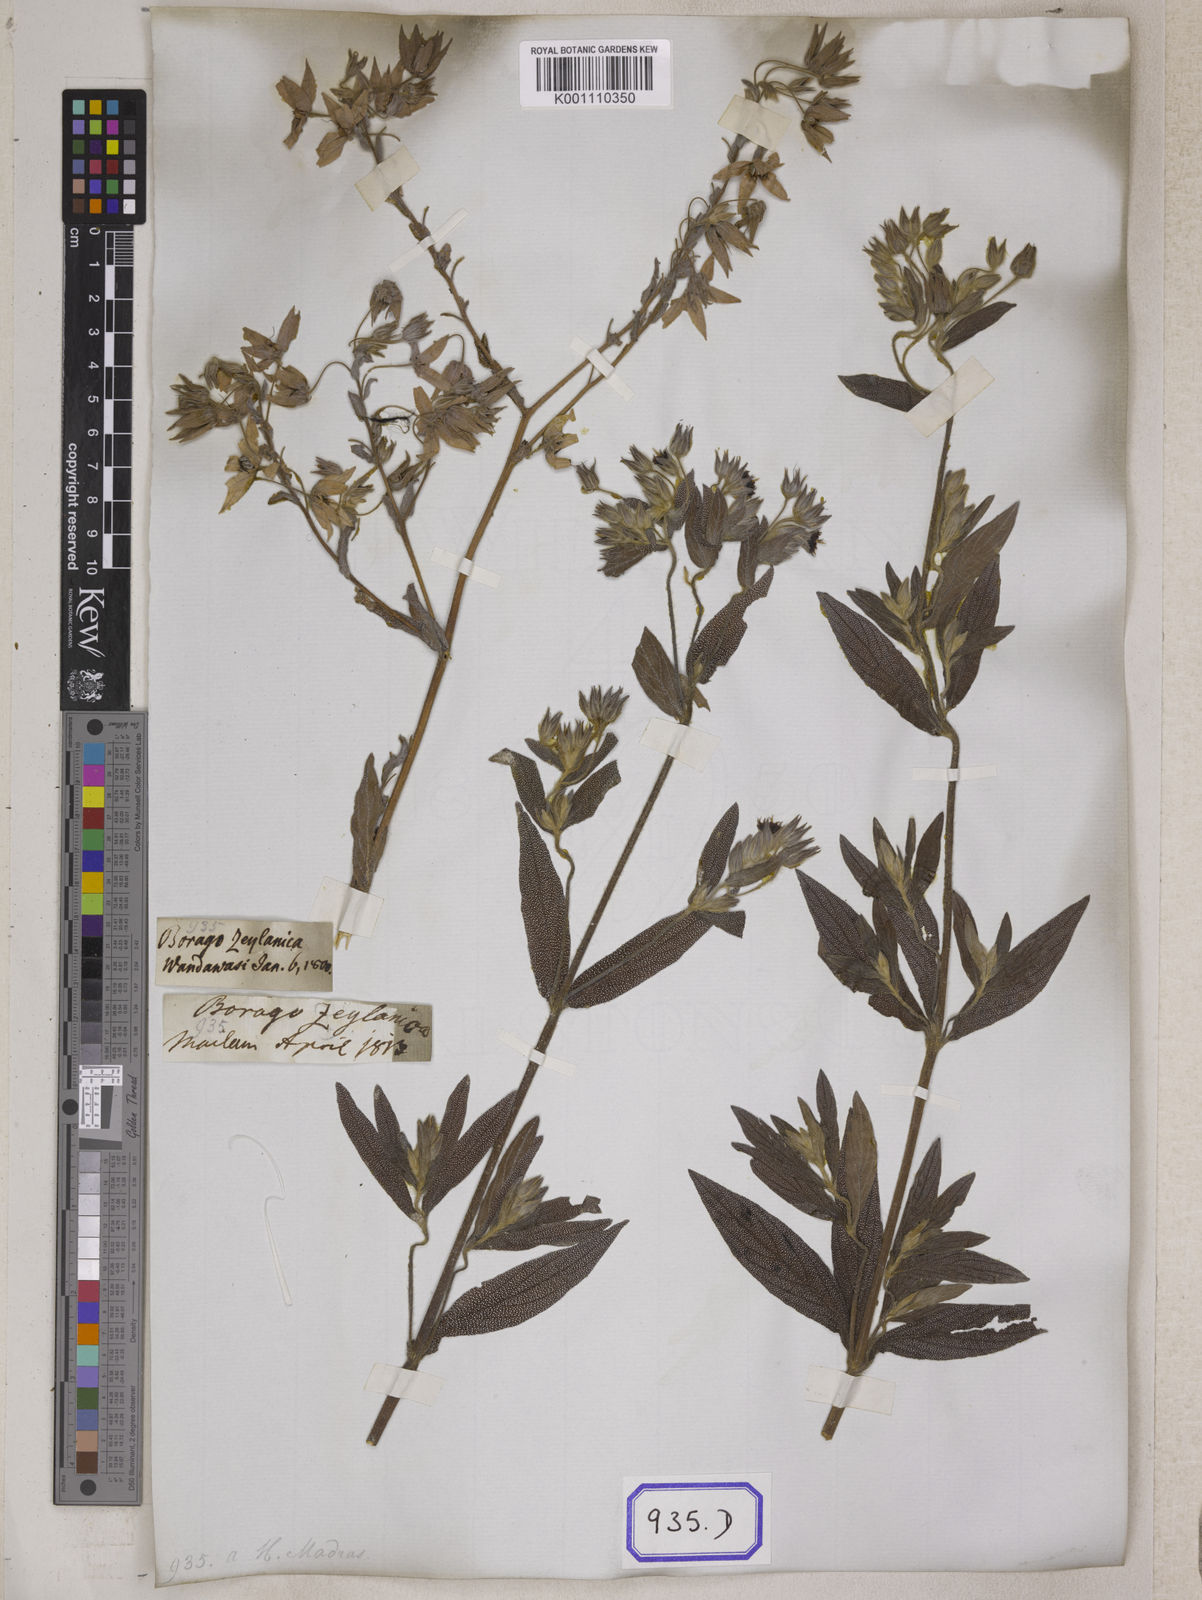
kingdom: Plantae
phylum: Tracheophyta
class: Magnoliopsida
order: Boraginales
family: Boraginaceae
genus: Trichodesma
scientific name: Trichodesma zeylanicum
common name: Camelbush
